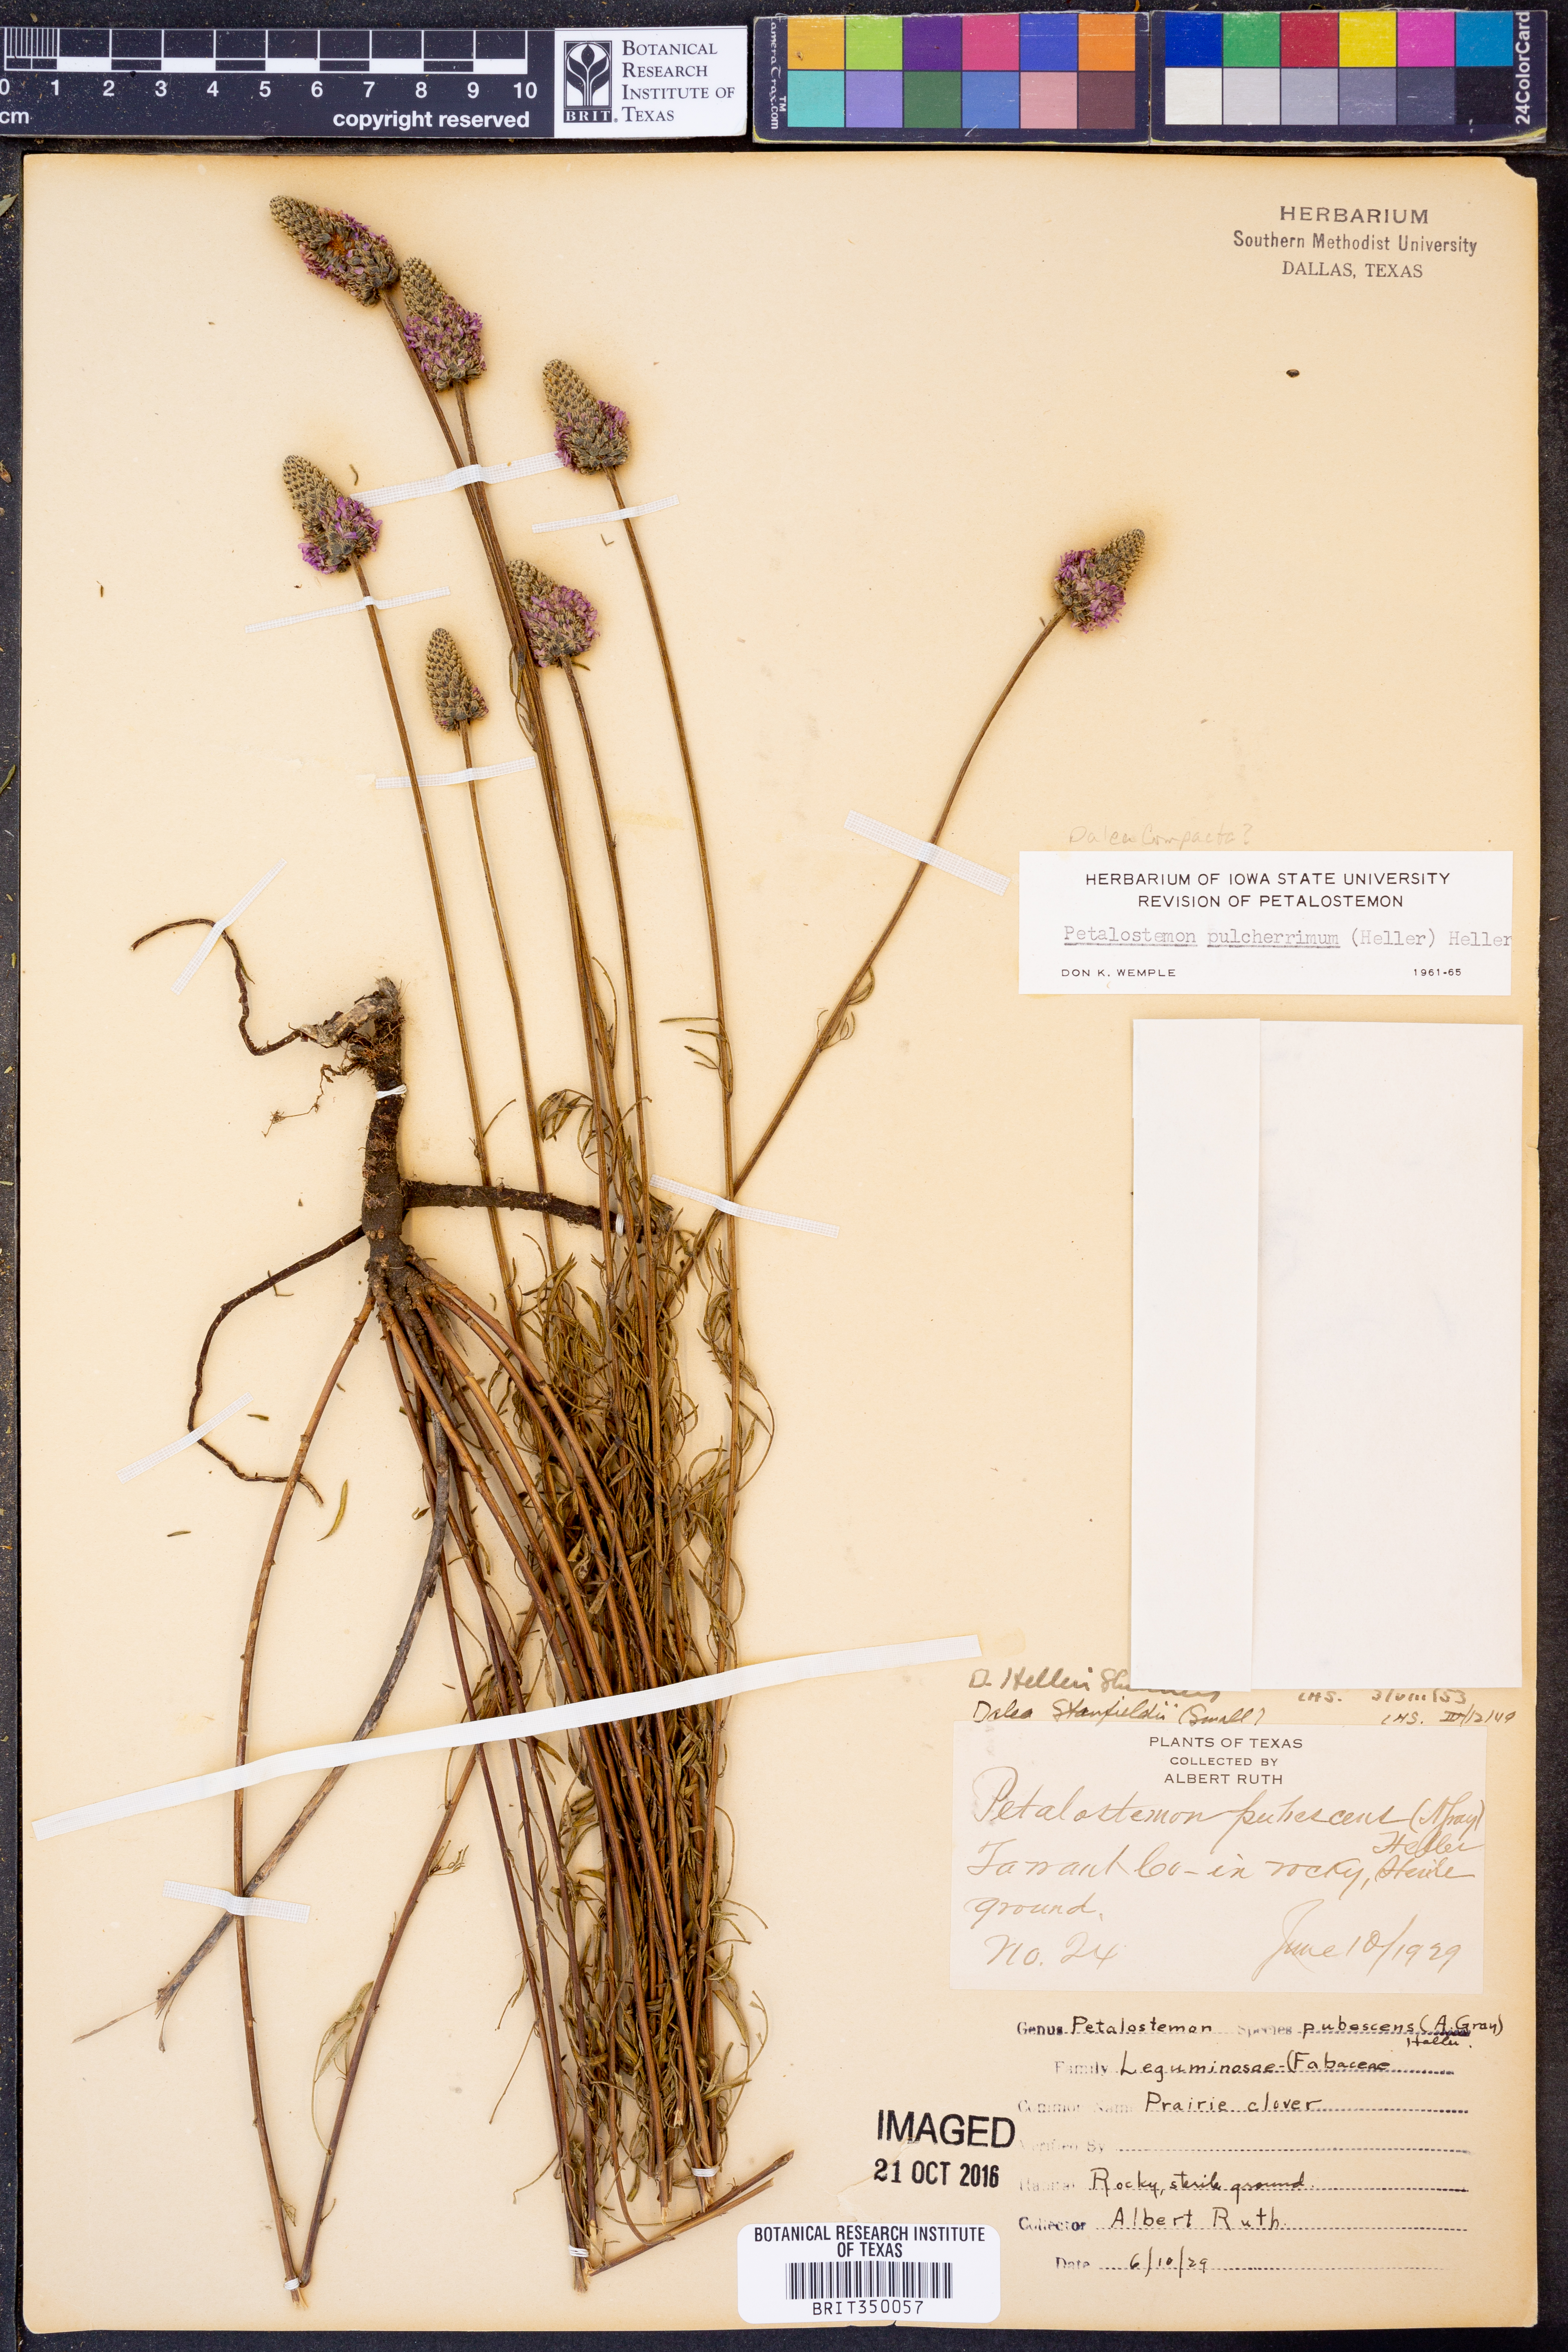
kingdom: Plantae
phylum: Tracheophyta
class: Magnoliopsida
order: Fabales
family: Fabaceae
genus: Dalea
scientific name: Dalea compacta
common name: Compact prairie-clover
